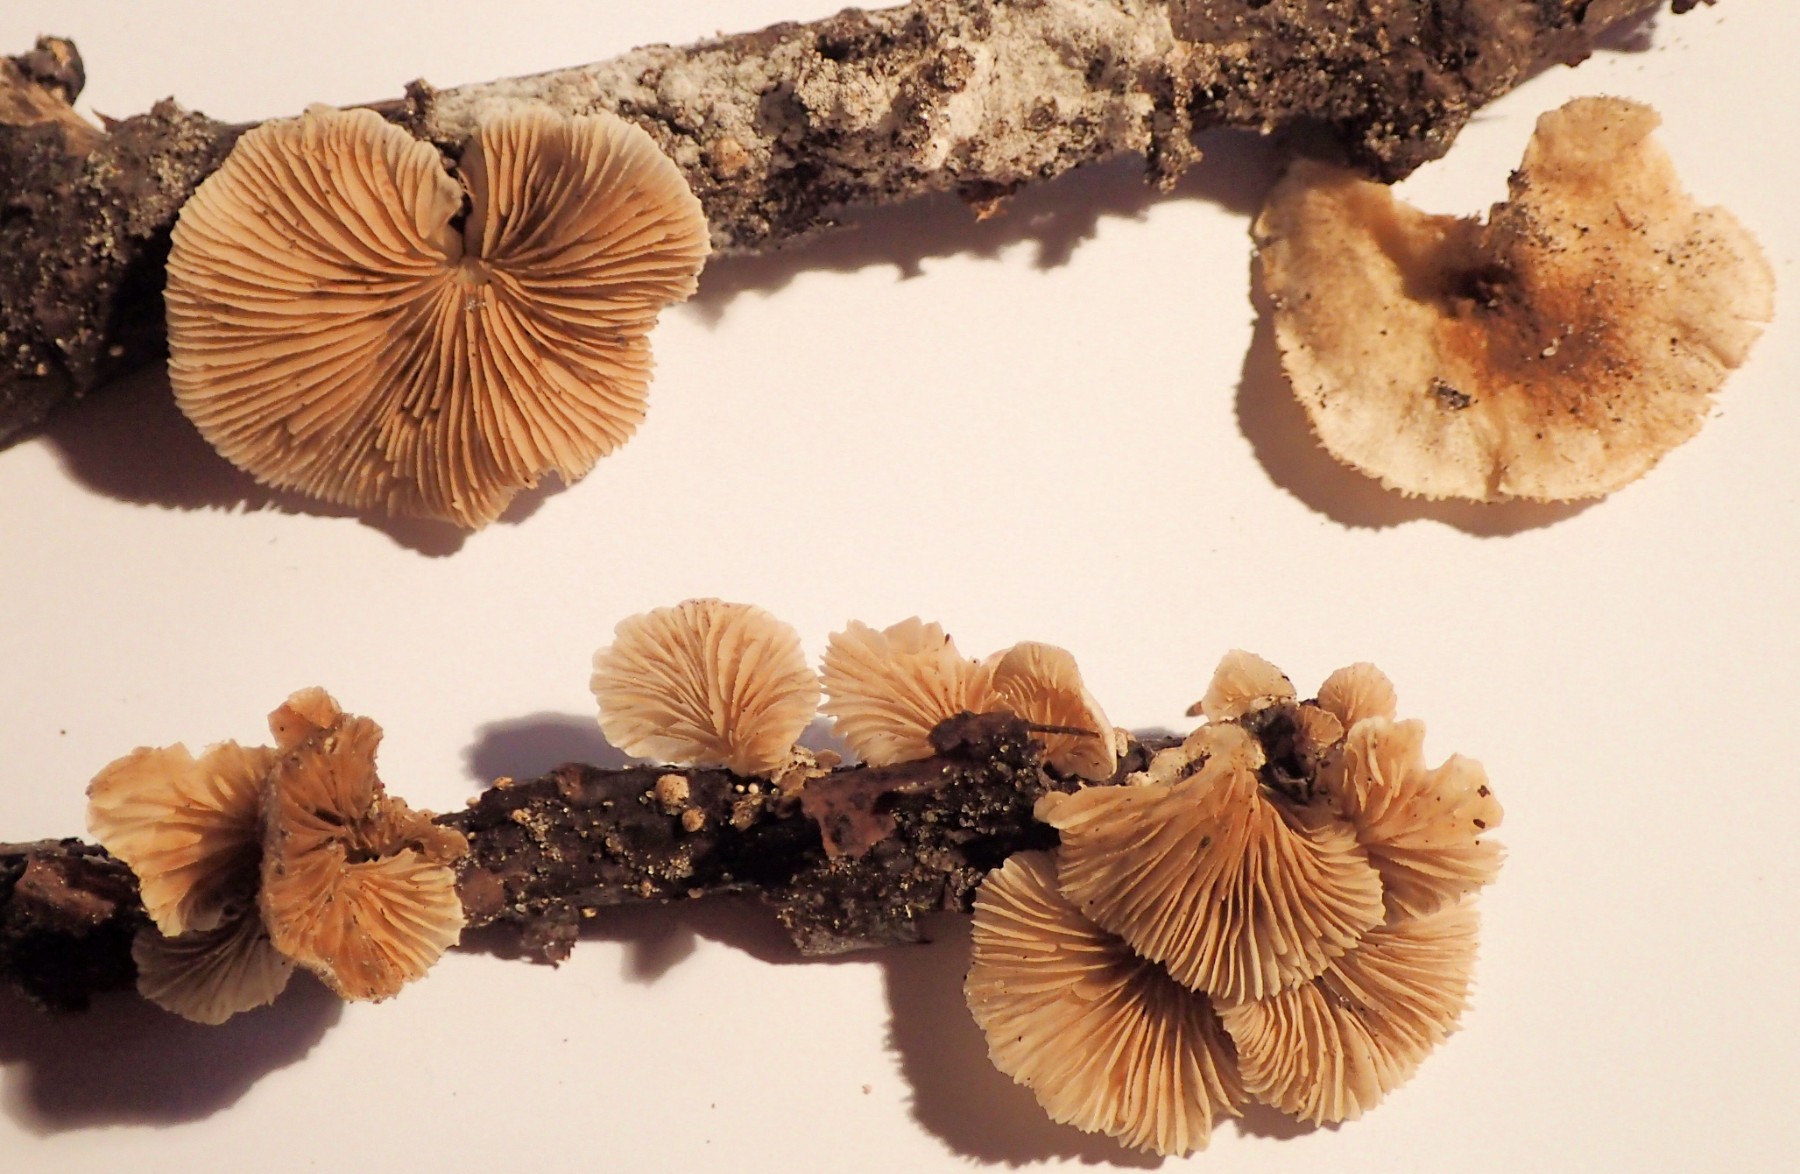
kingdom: Fungi
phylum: Basidiomycota
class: Agaricomycetes
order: Agaricales
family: Crepidotaceae
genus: Crepidotus
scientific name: Crepidotus caspari
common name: Lundells muslingesvamp
